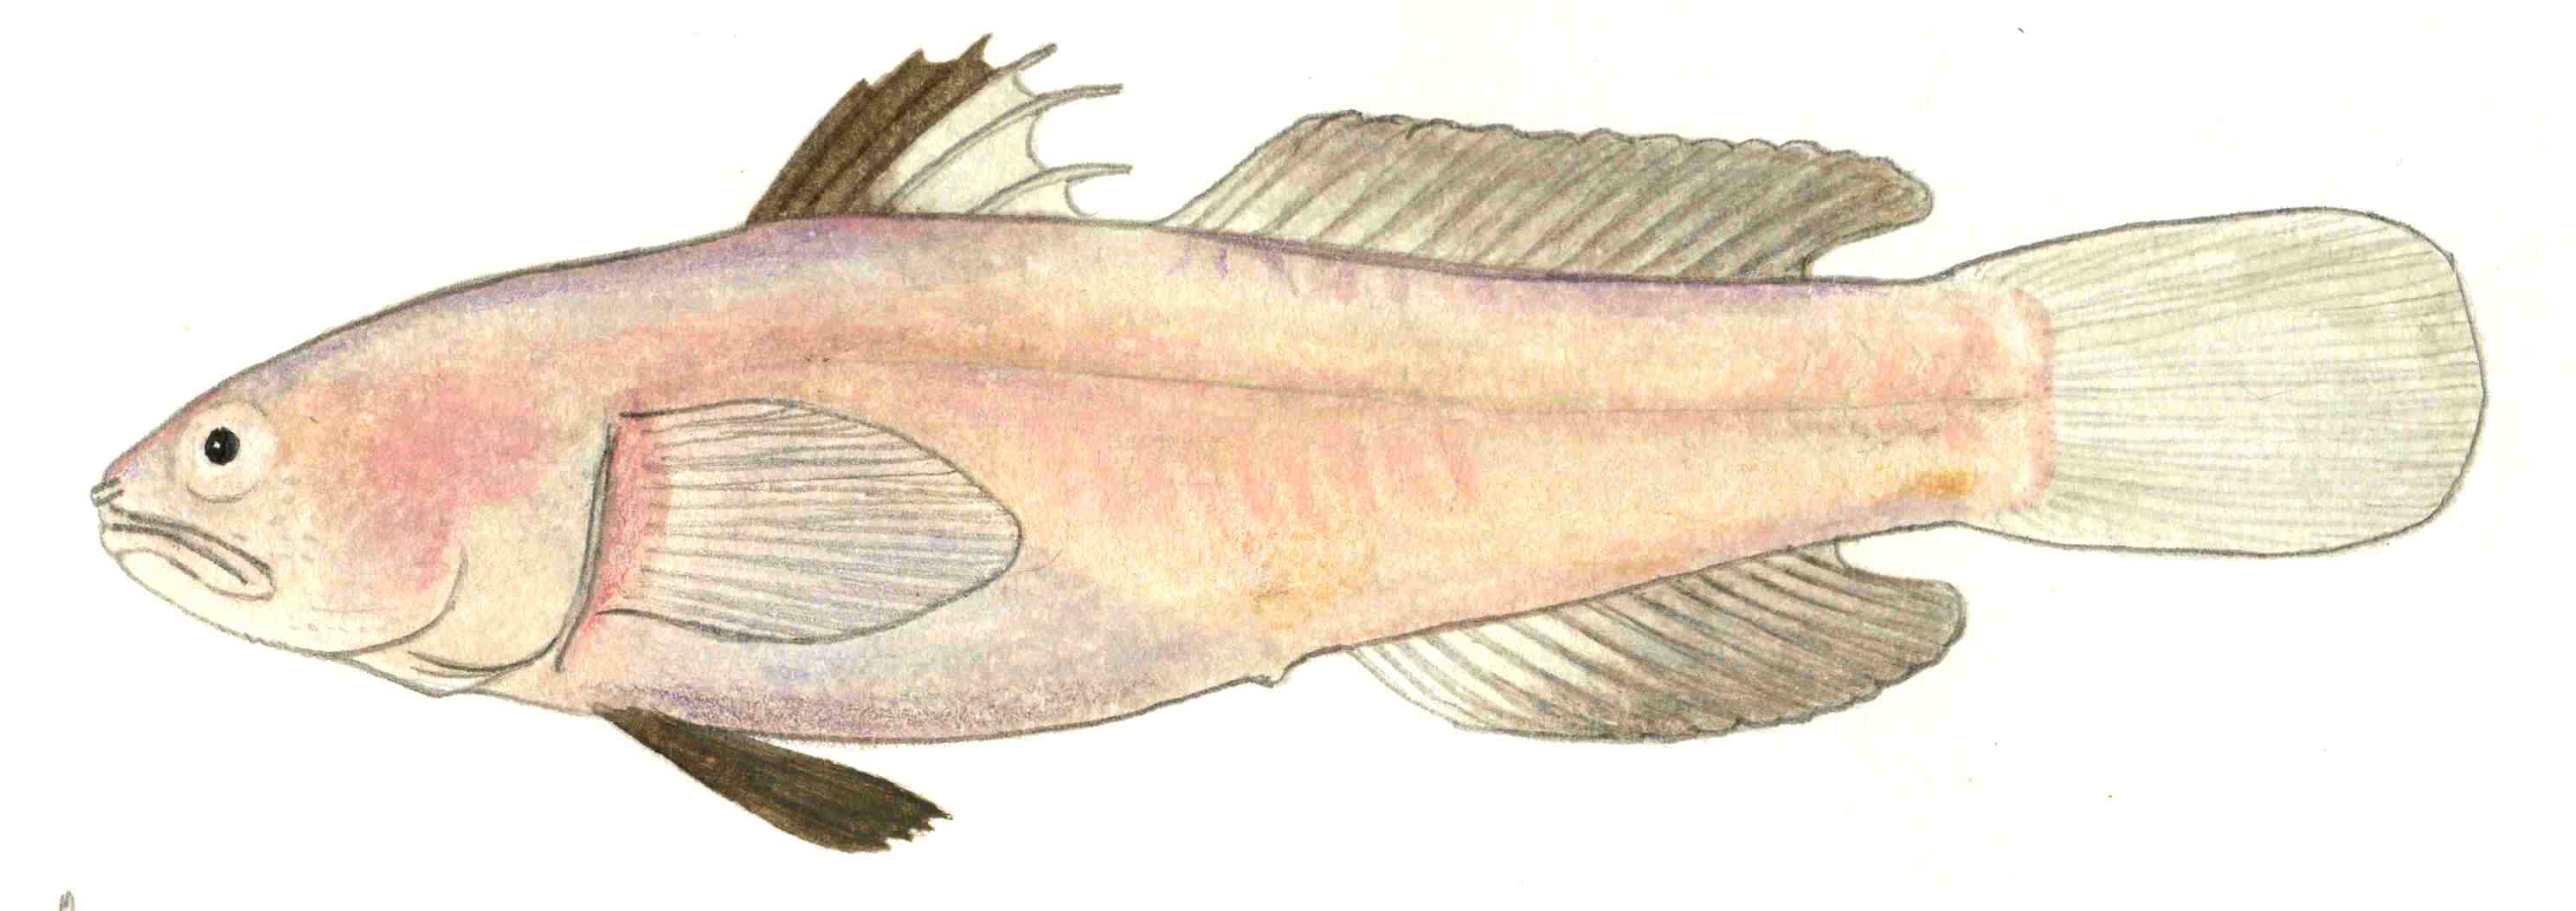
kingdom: Animalia
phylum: Chordata
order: Perciformes
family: Gobiidae
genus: Austrolethops
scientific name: Austrolethops wardi
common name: Small-eyed goby
